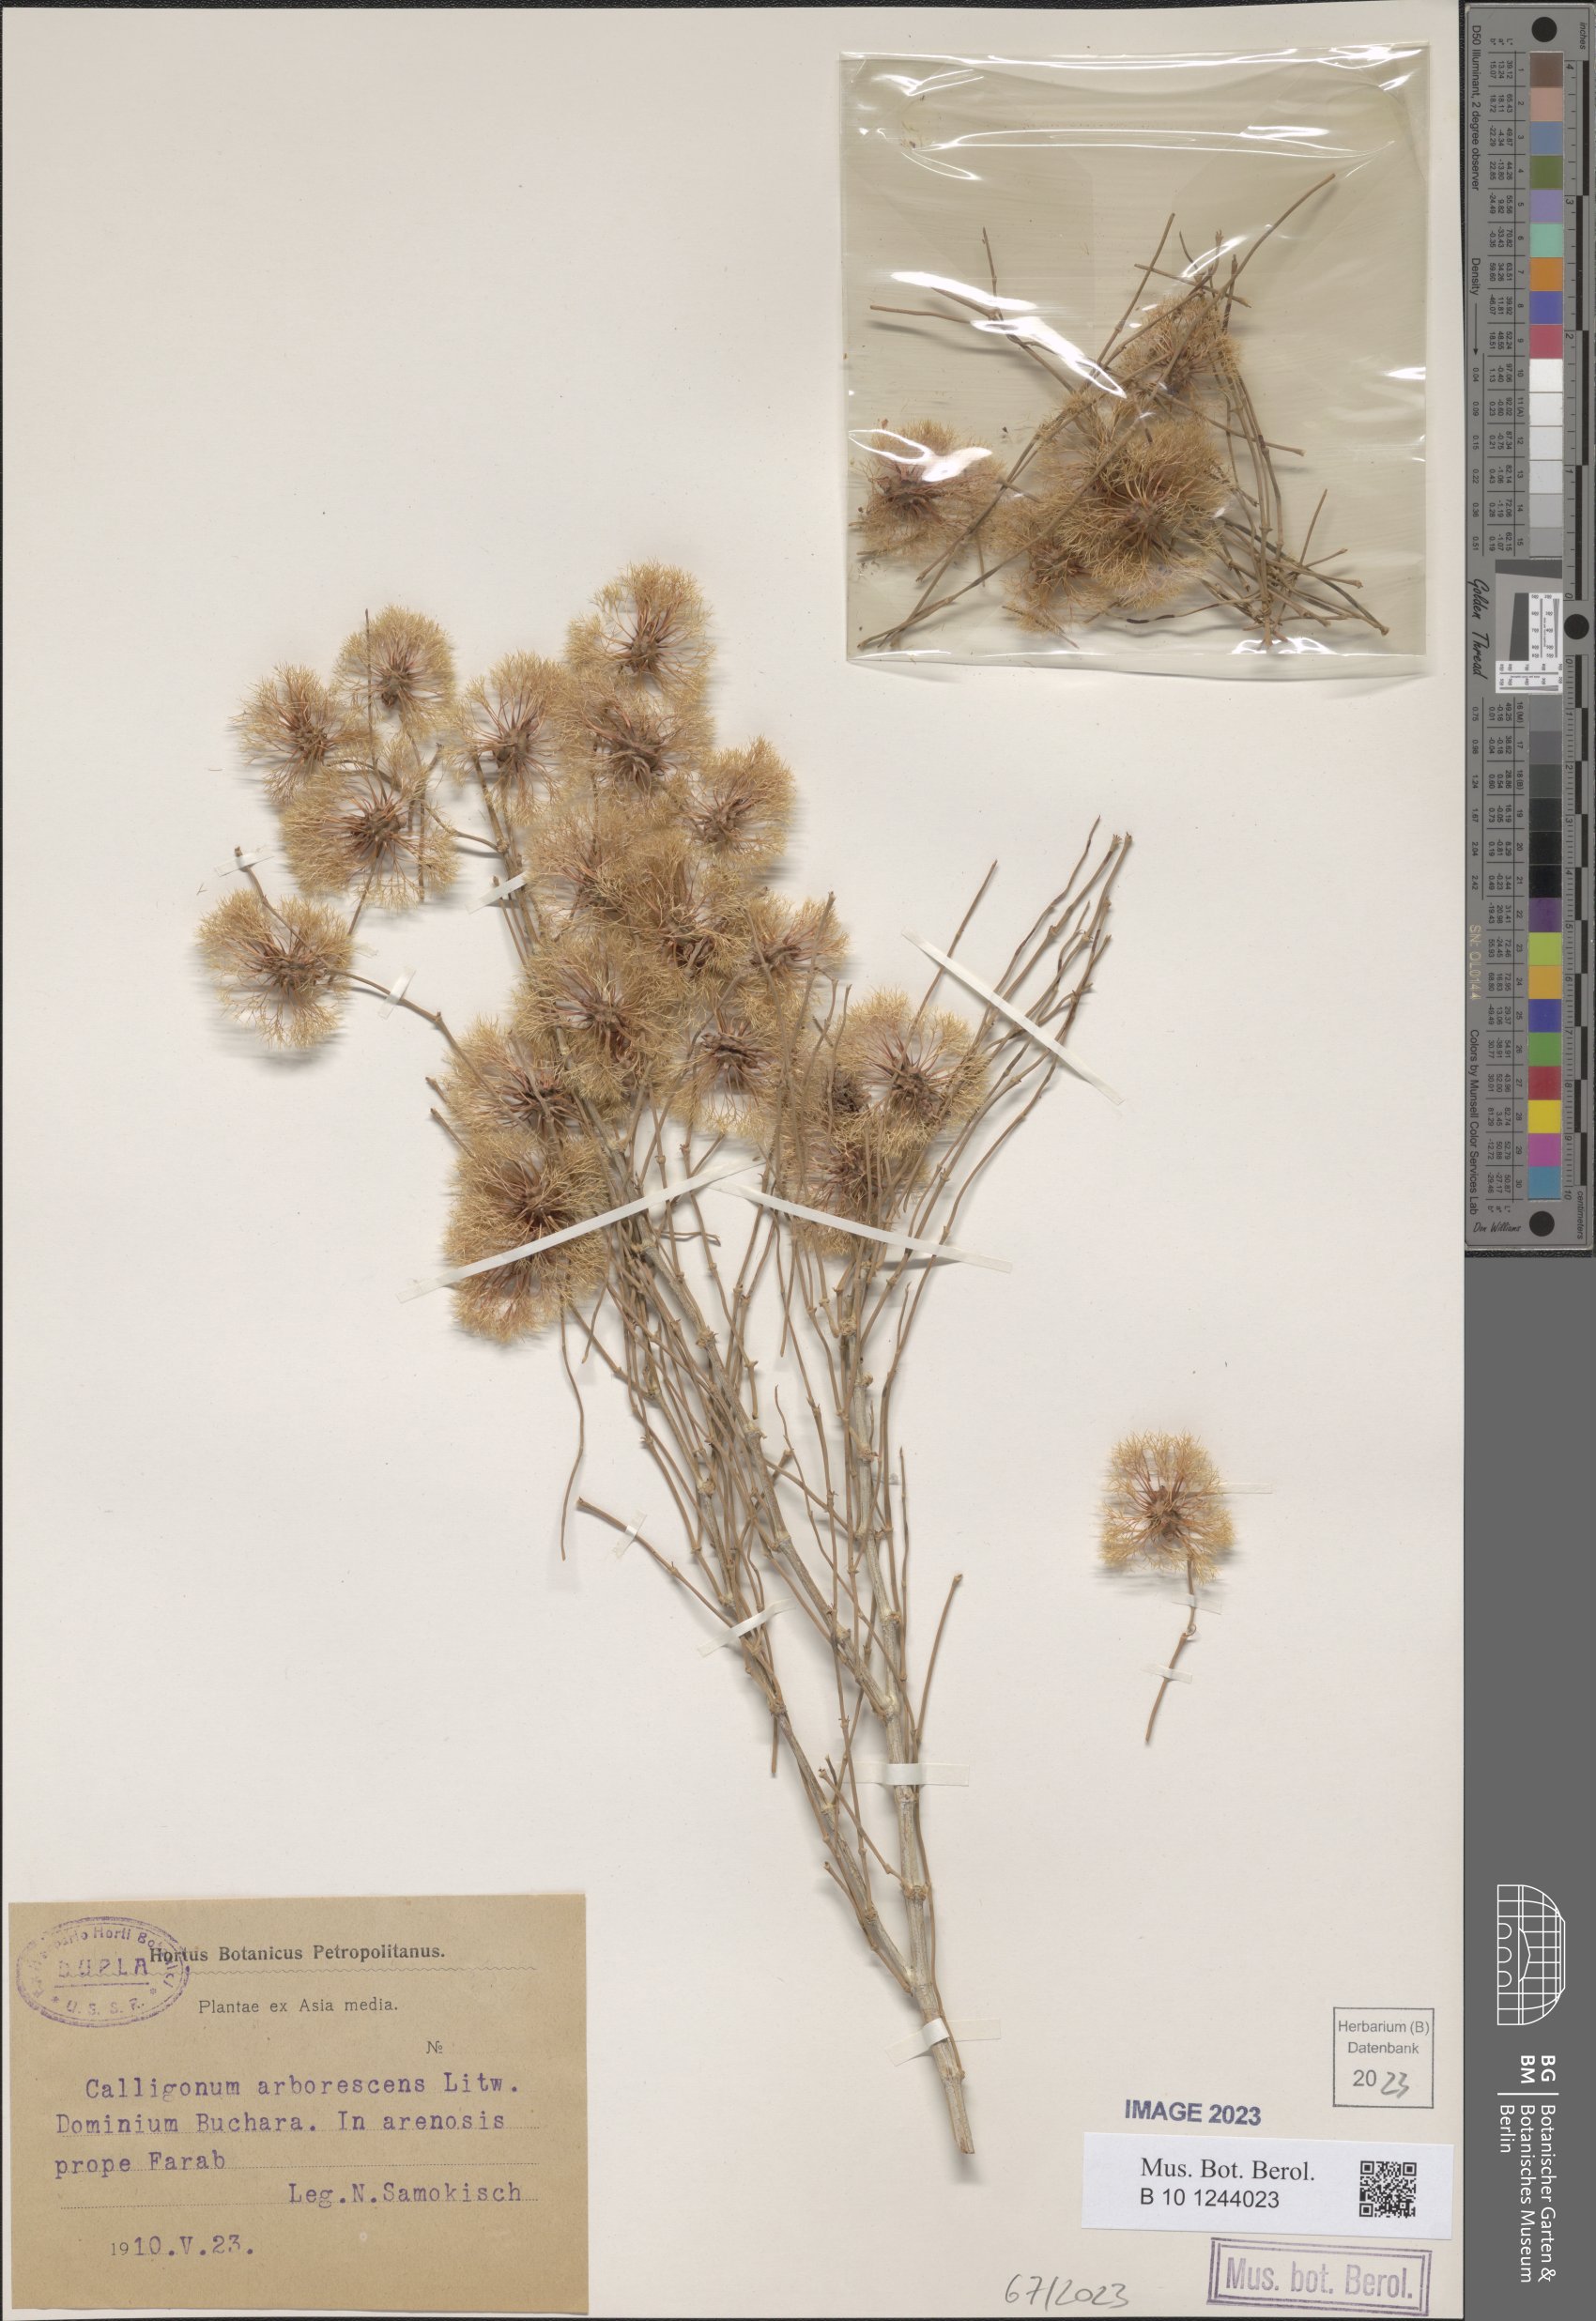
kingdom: Plantae
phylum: Tracheophyta
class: Magnoliopsida
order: Caryophyllales
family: Polygonaceae
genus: Calligonum
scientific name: Calligonum arborescens
